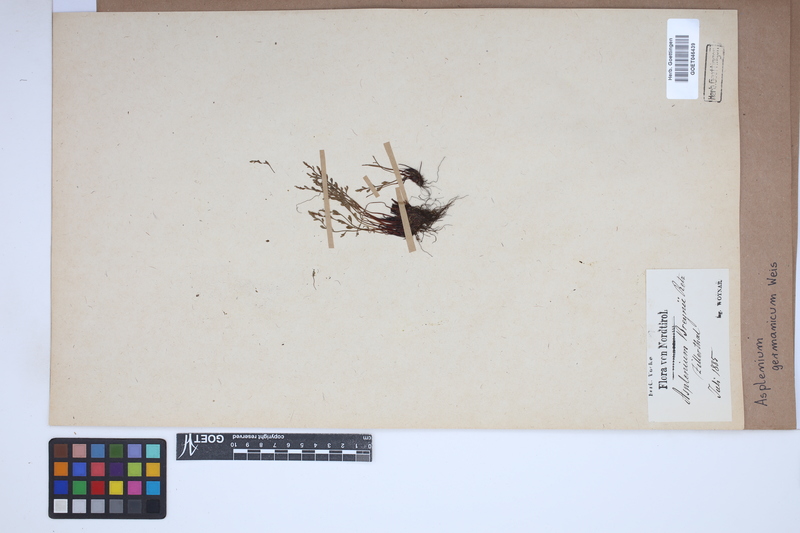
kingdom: Plantae
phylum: Tracheophyta
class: Polypodiopsida
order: Polypodiales
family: Aspleniaceae
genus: Asplenium
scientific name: Asplenium
